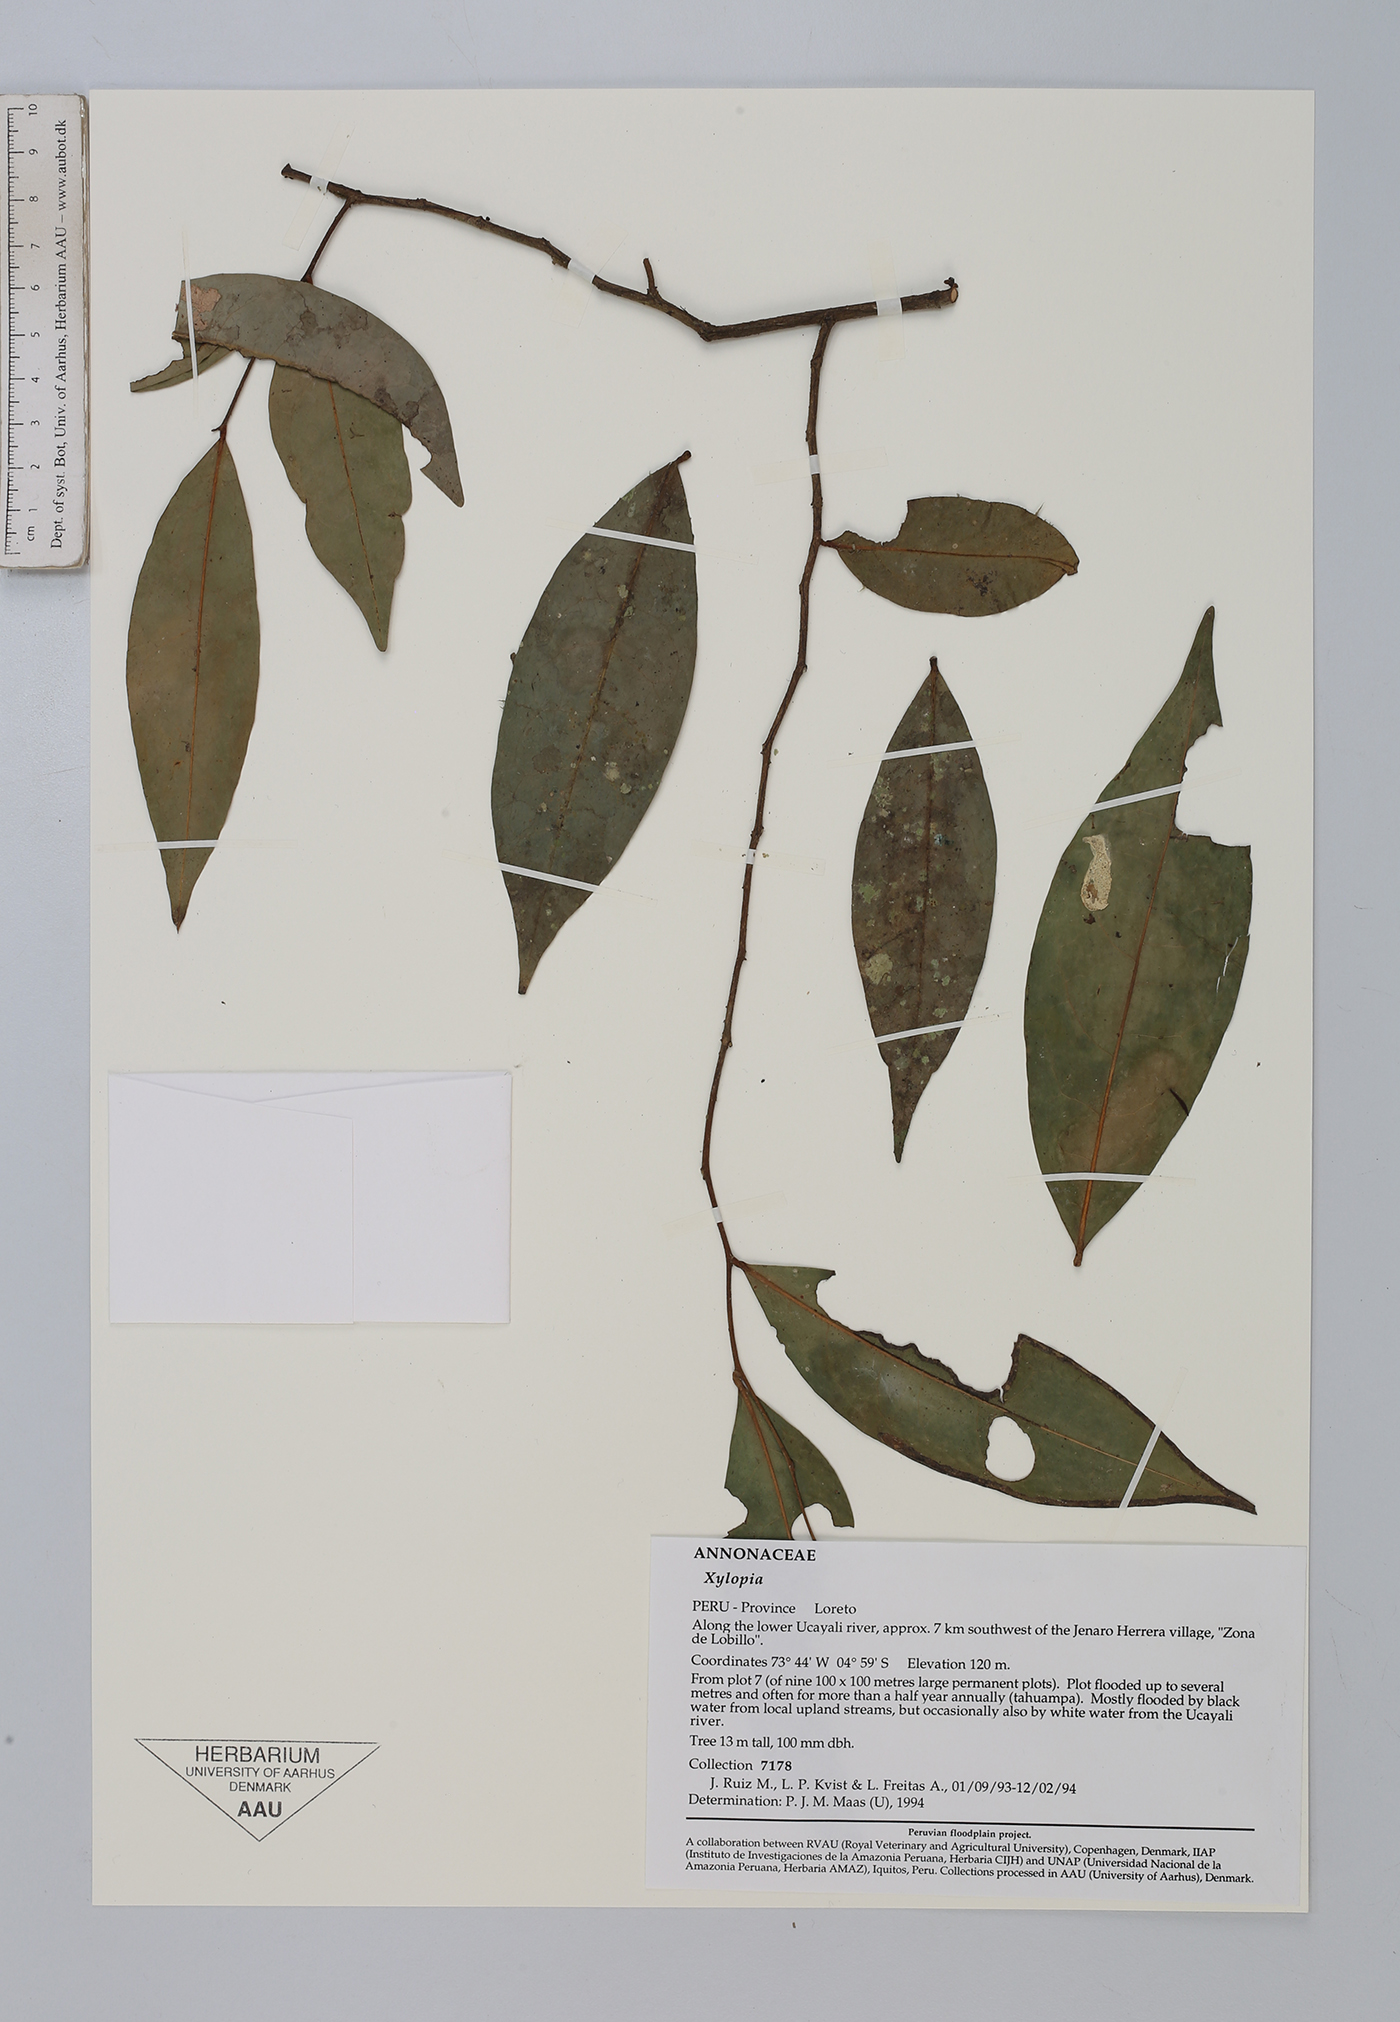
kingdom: Plantae
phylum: Tracheophyta
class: Magnoliopsida
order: Magnoliales
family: Annonaceae
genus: Xylopia
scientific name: Xylopia
